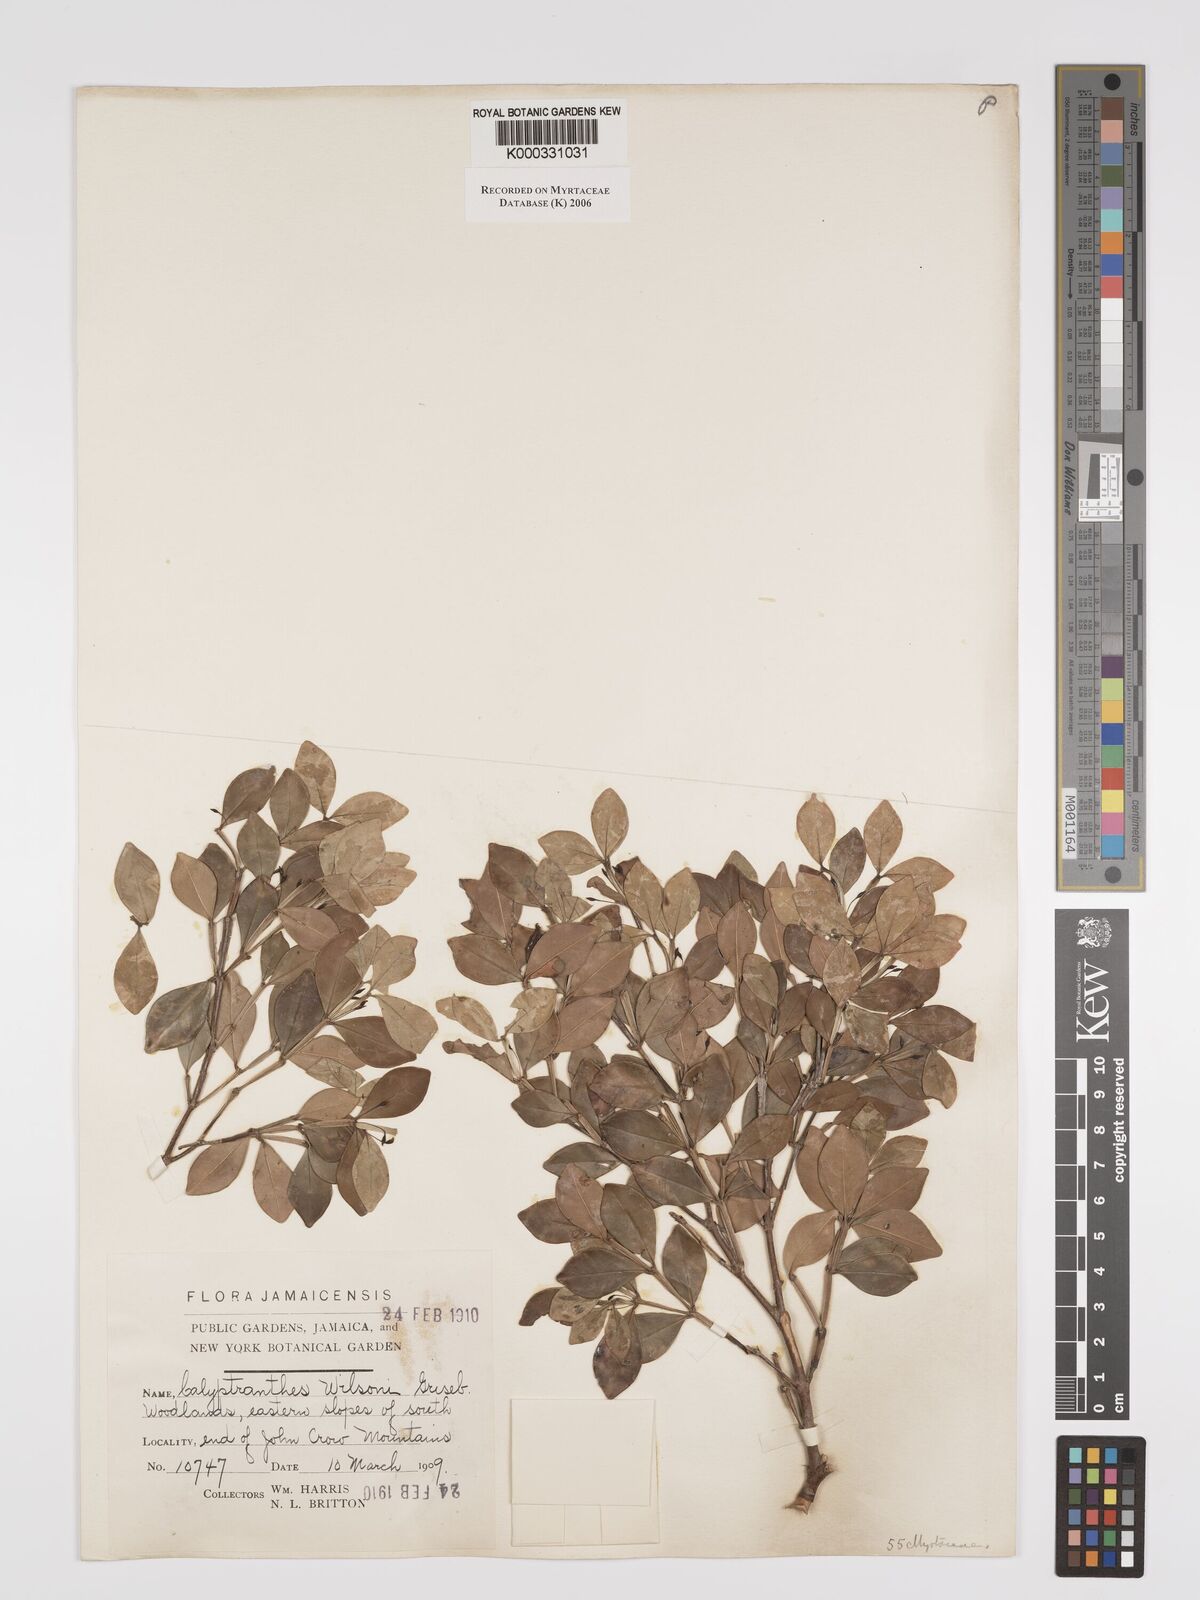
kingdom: Plantae
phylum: Tracheophyta
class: Magnoliopsida
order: Myrtales
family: Myrtaceae
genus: Myrcia
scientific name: Myrcia wilsonii
